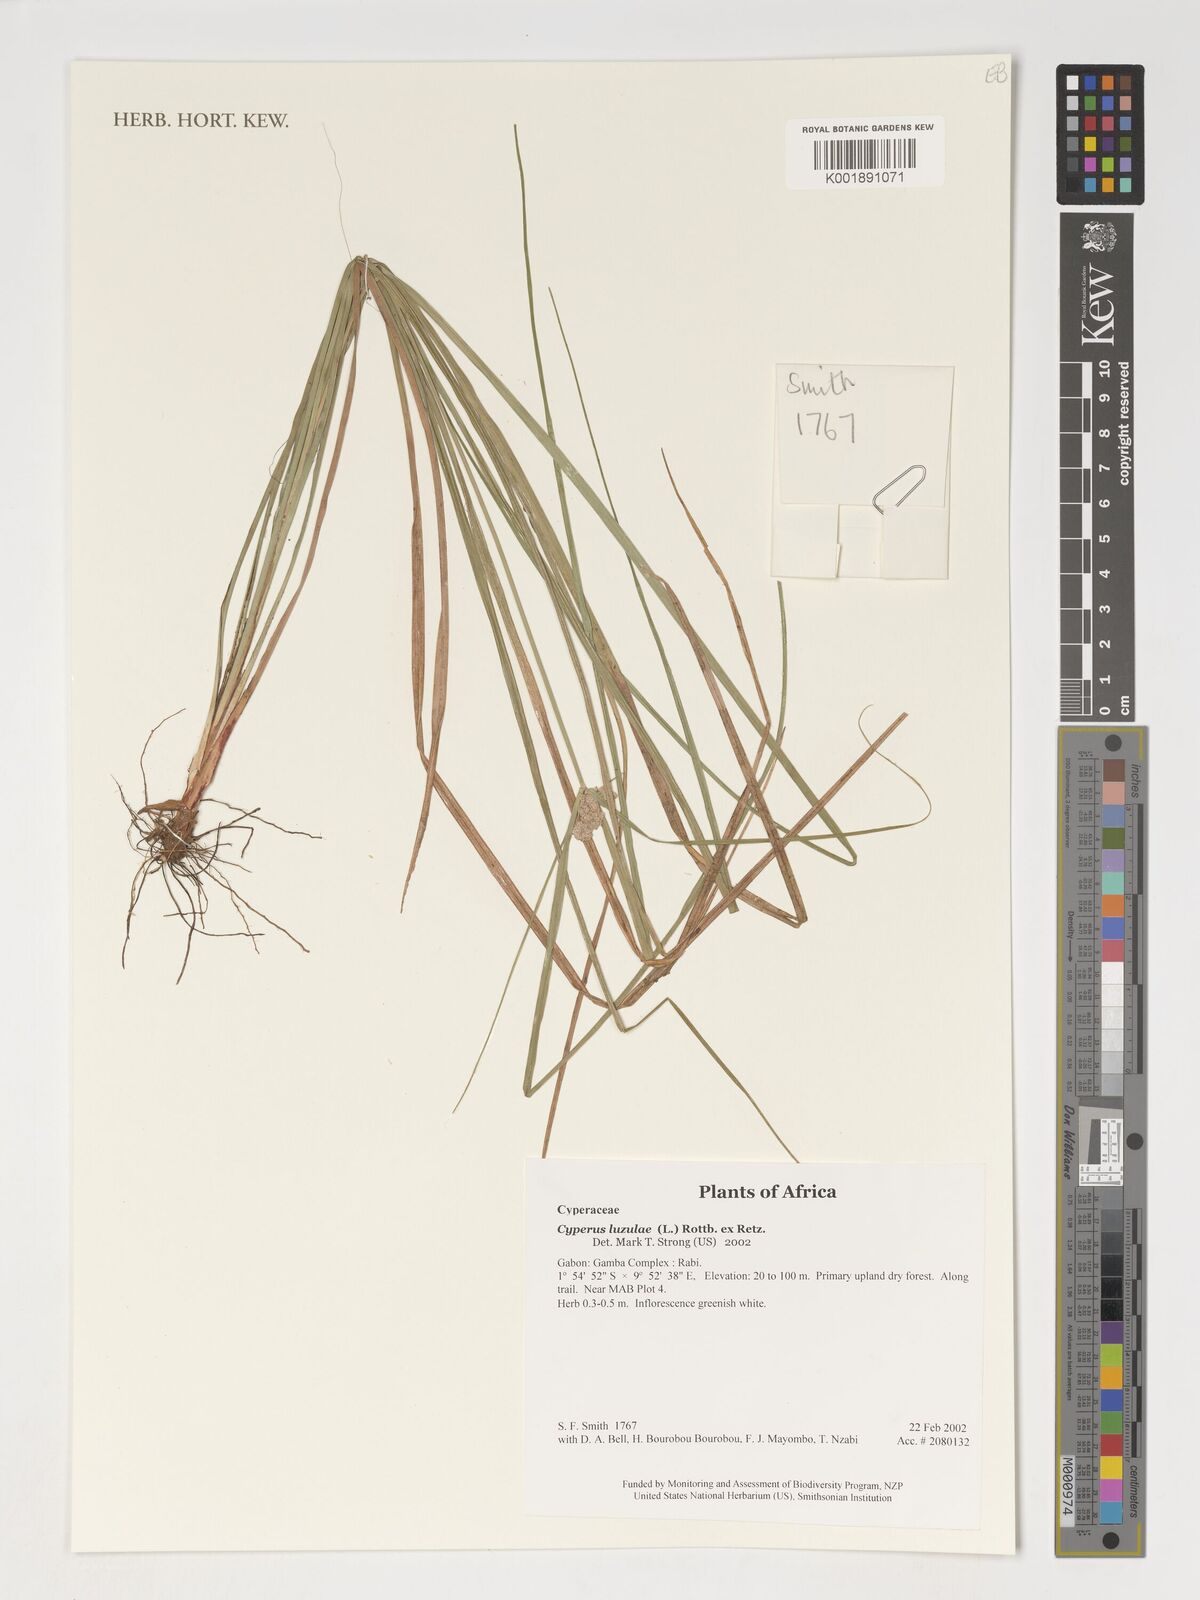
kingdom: Plantae
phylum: Tracheophyta
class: Liliopsida
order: Poales
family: Cyperaceae
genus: Cyperus
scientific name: Cyperus luzulae
